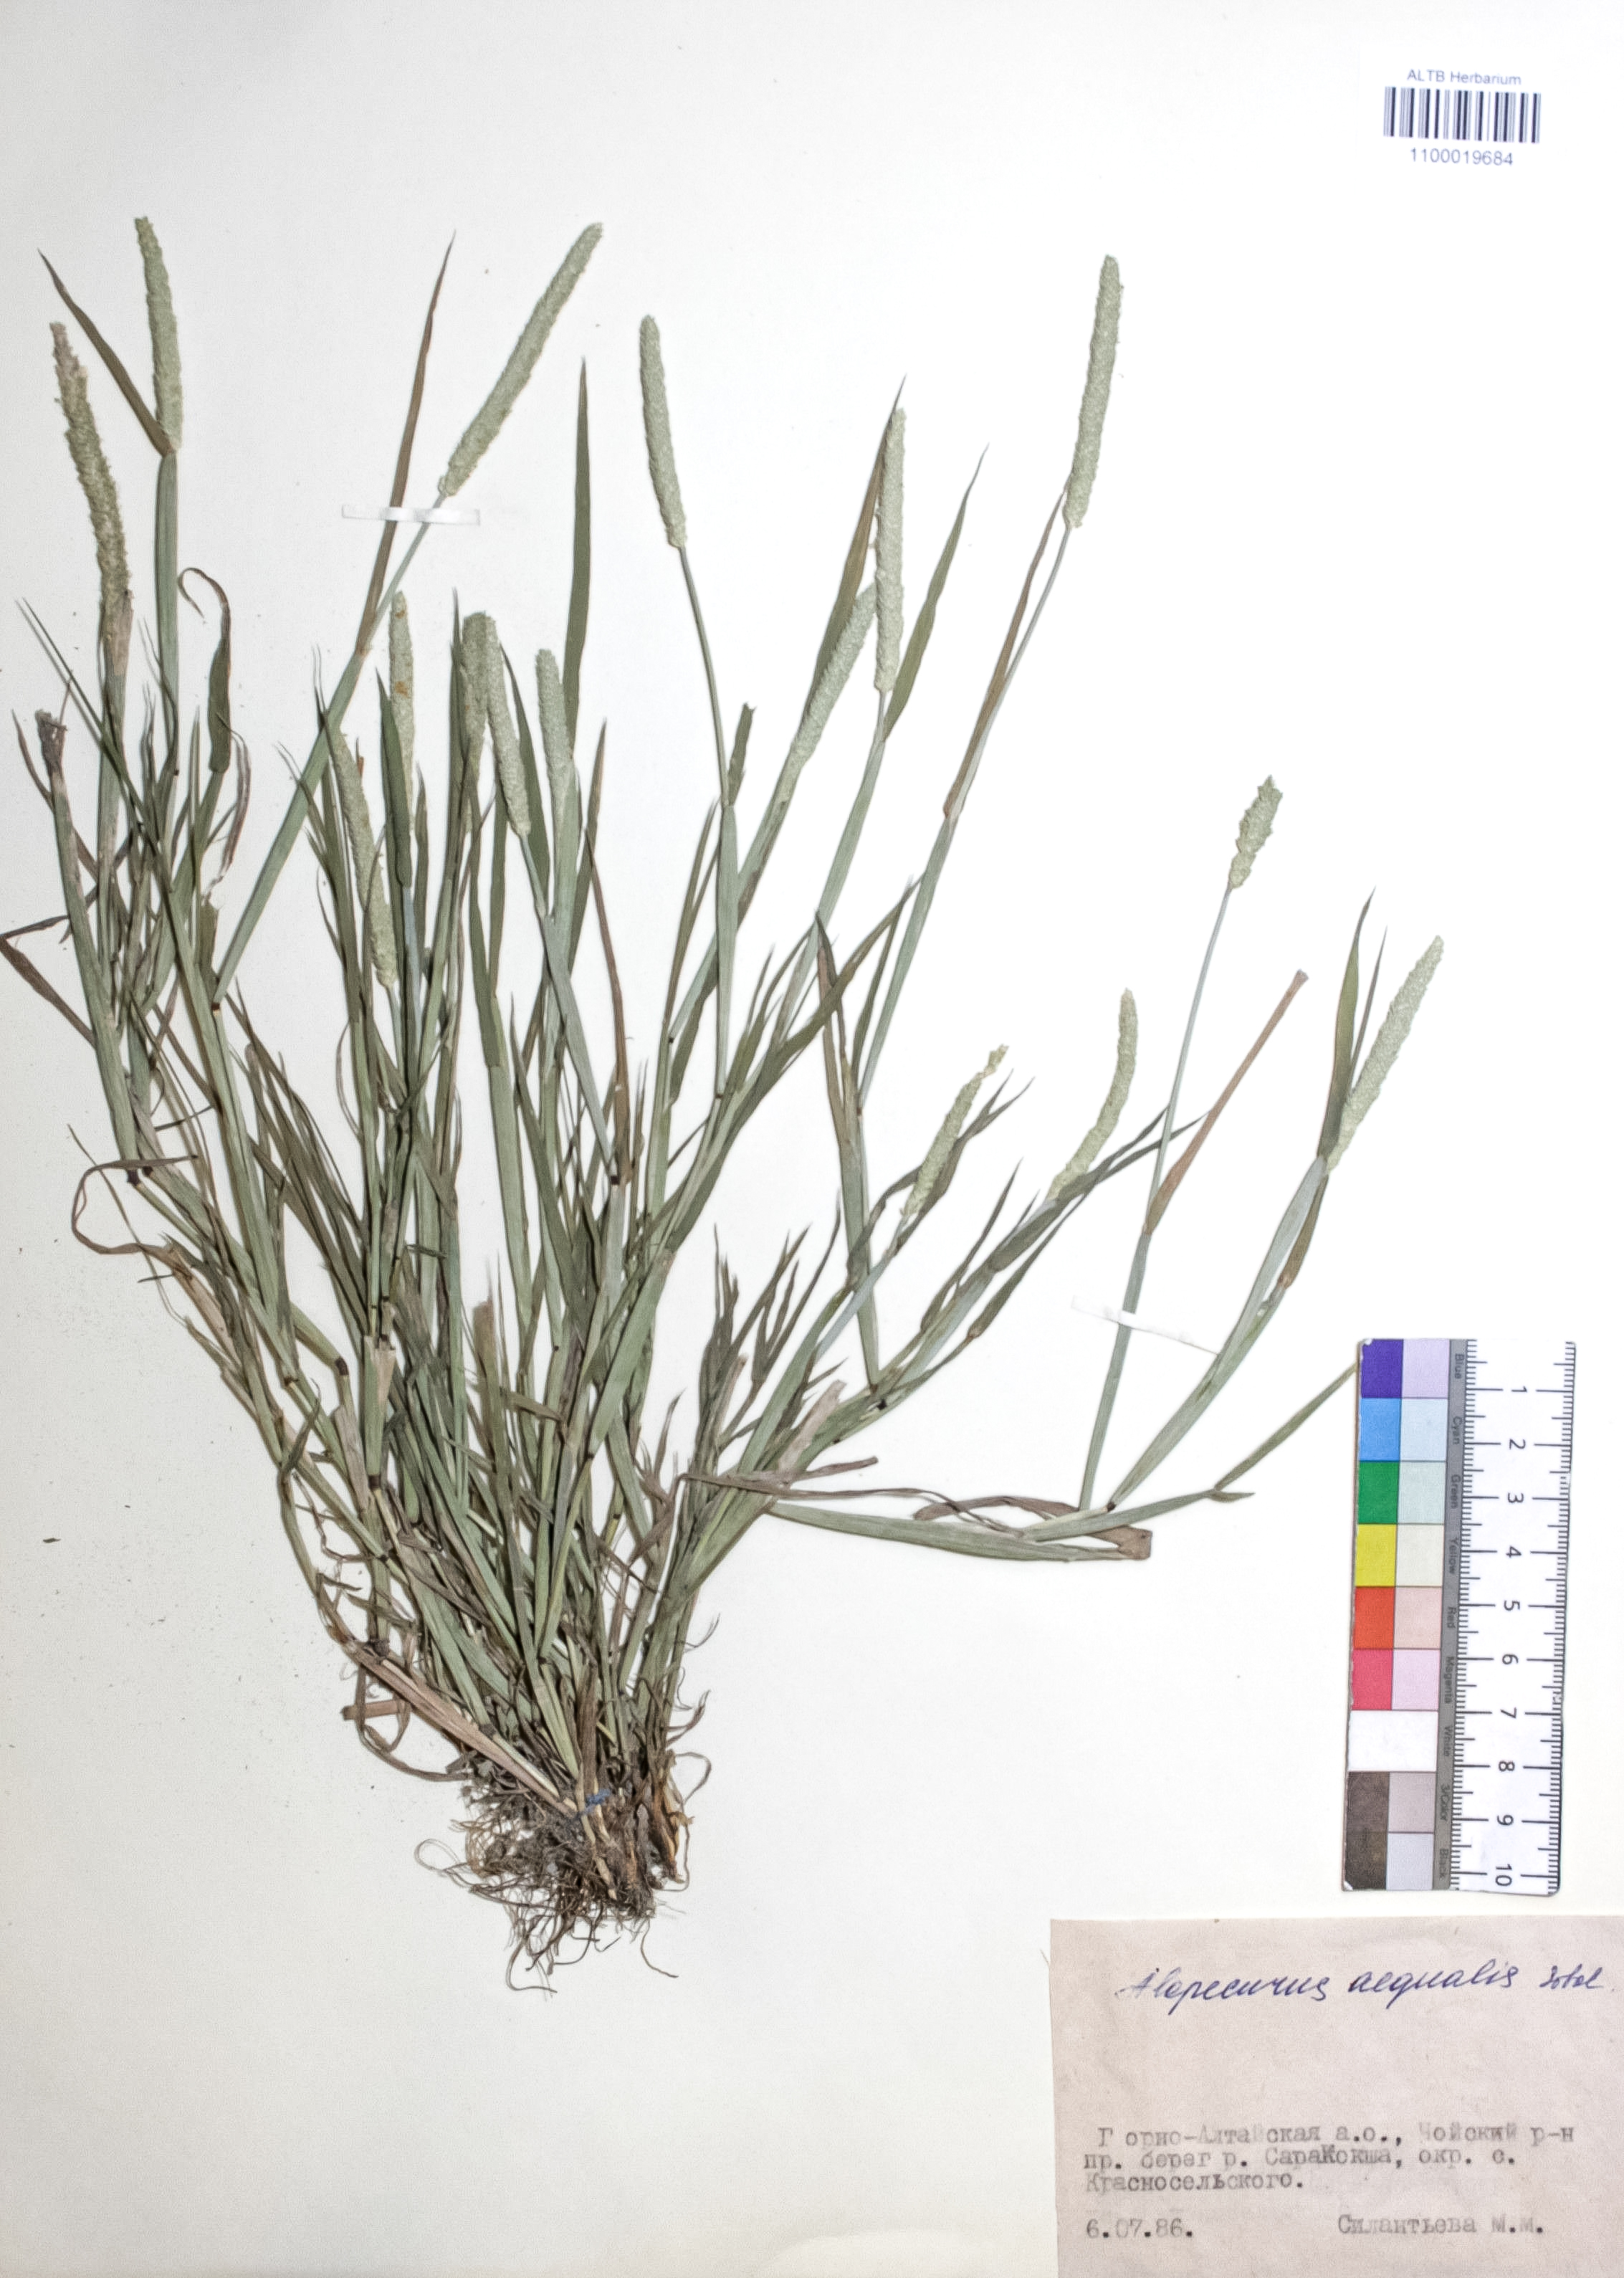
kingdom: Plantae
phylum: Tracheophyta
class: Liliopsida
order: Poales
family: Poaceae
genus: Alopecurus
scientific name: Alopecurus aequalis
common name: Orange foxtail
